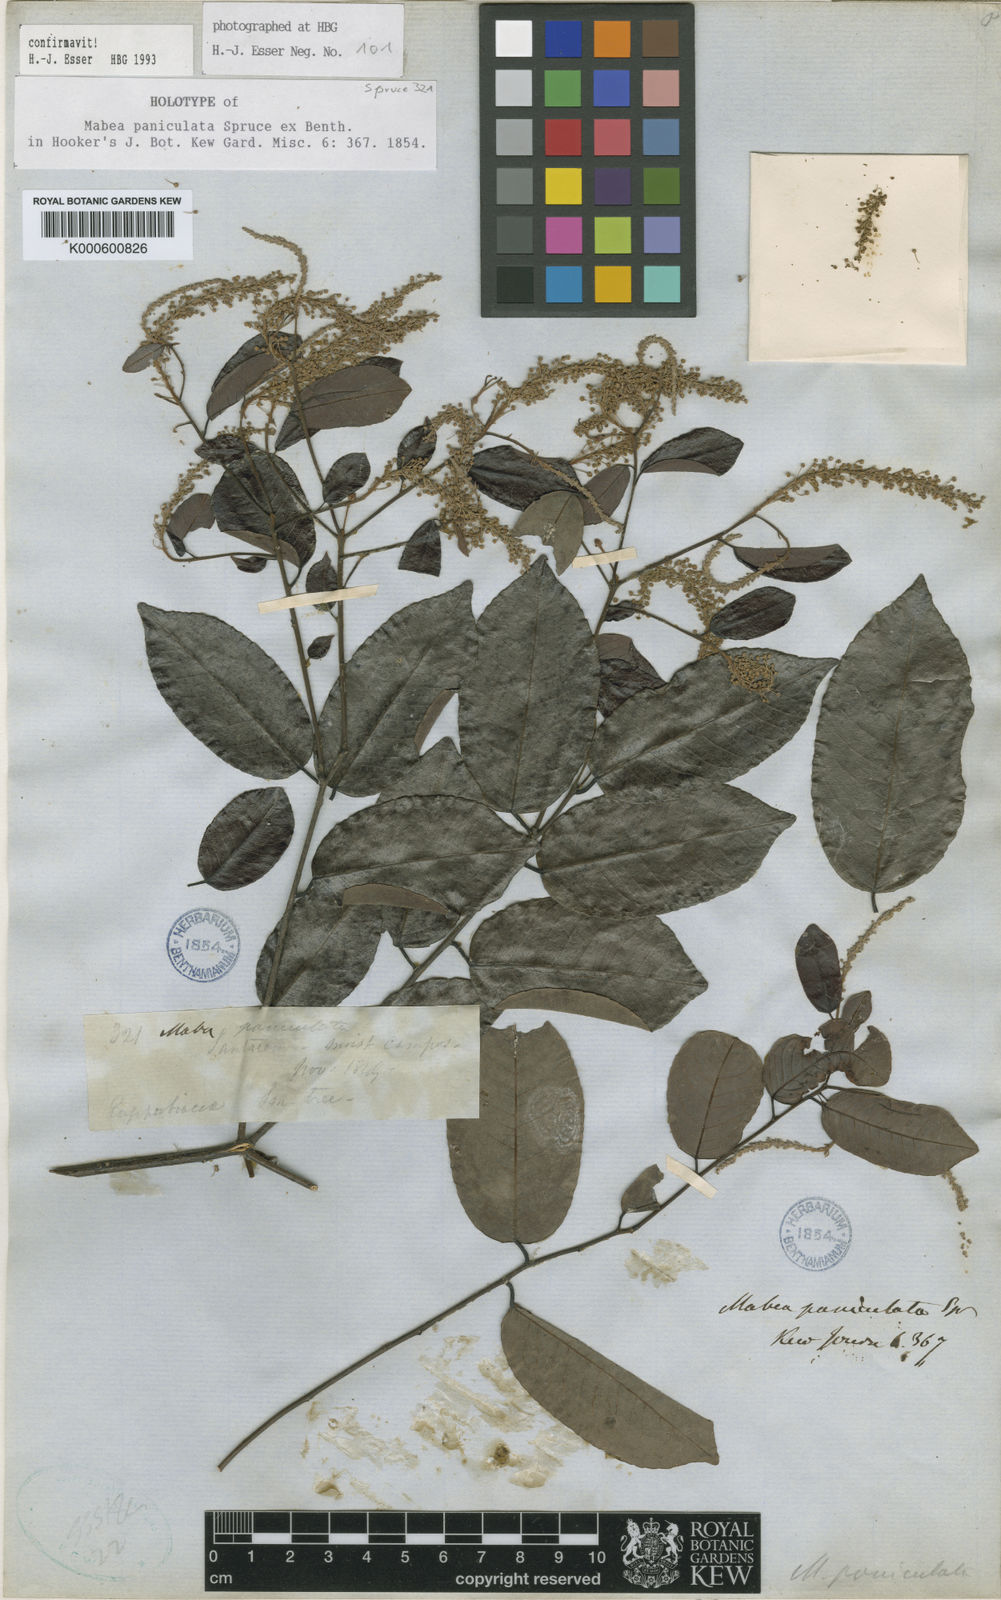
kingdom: Plantae
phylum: Tracheophyta
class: Magnoliopsida
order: Malpighiales
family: Euphorbiaceae
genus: Mabea
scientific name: Mabea paniculata
